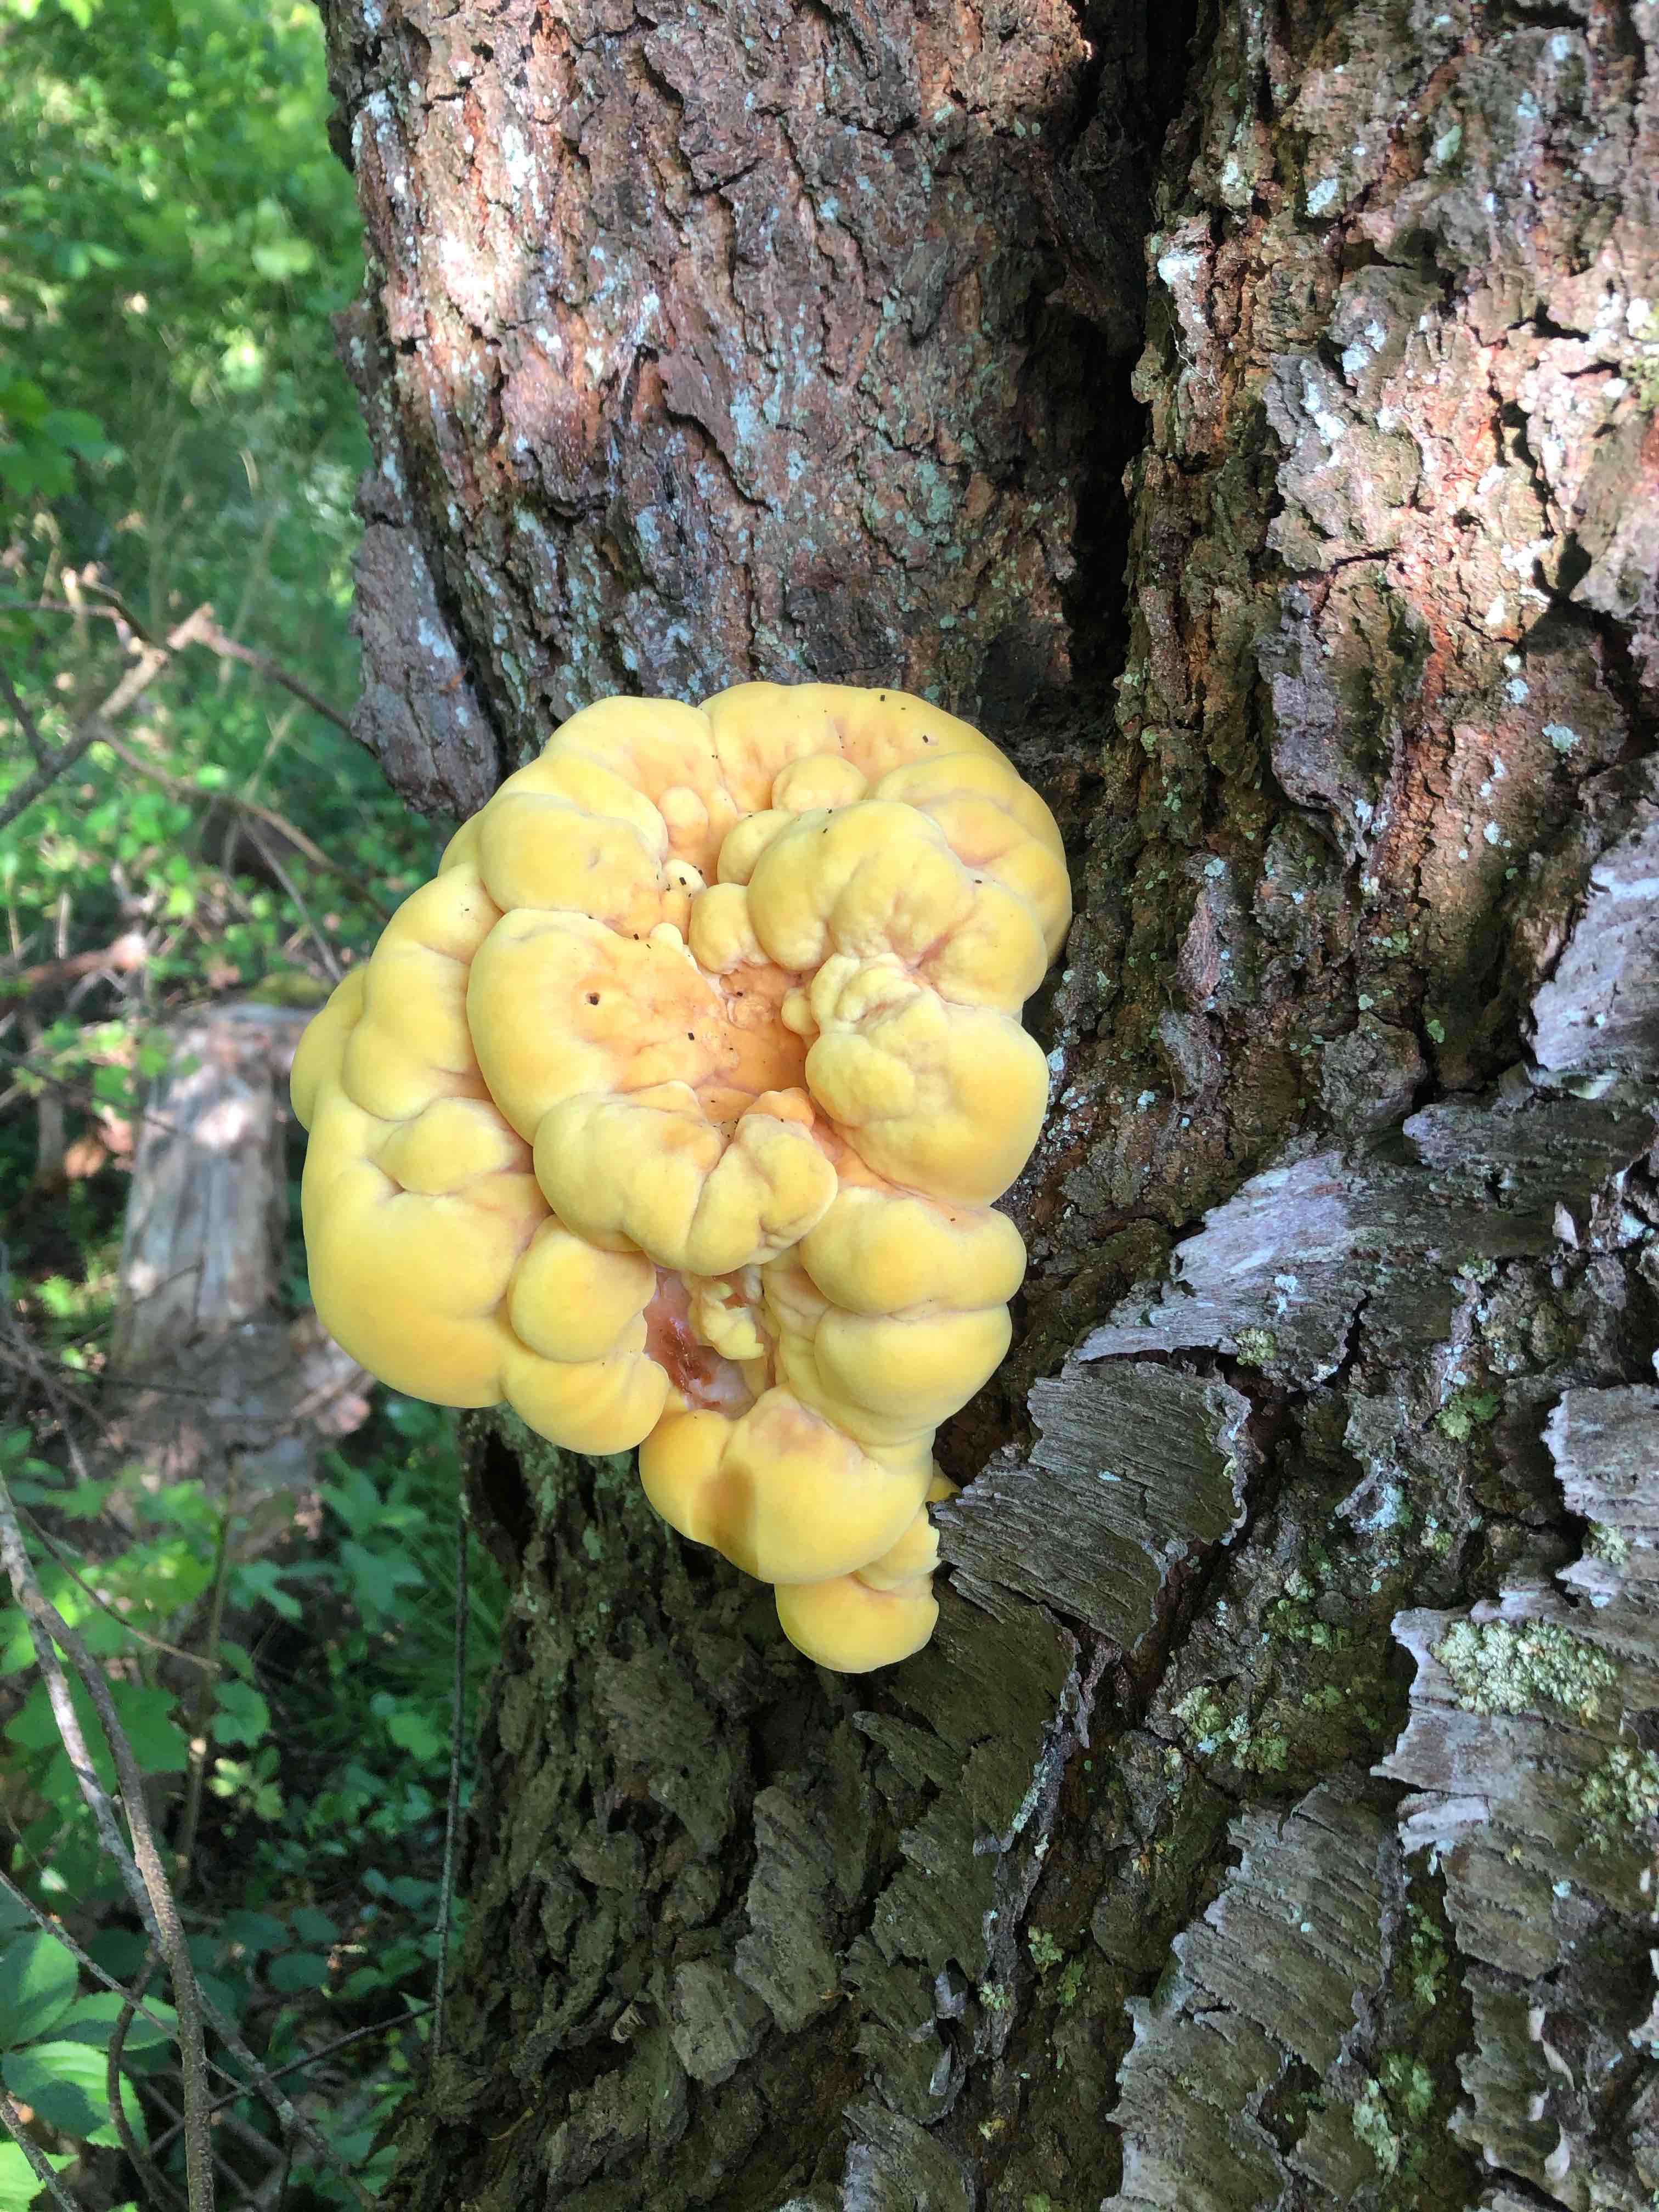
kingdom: Fungi
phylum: Basidiomycota
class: Agaricomycetes
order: Polyporales
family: Laetiporaceae
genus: Laetiporus
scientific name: Laetiporus sulphureus
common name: svovlporesvamp
